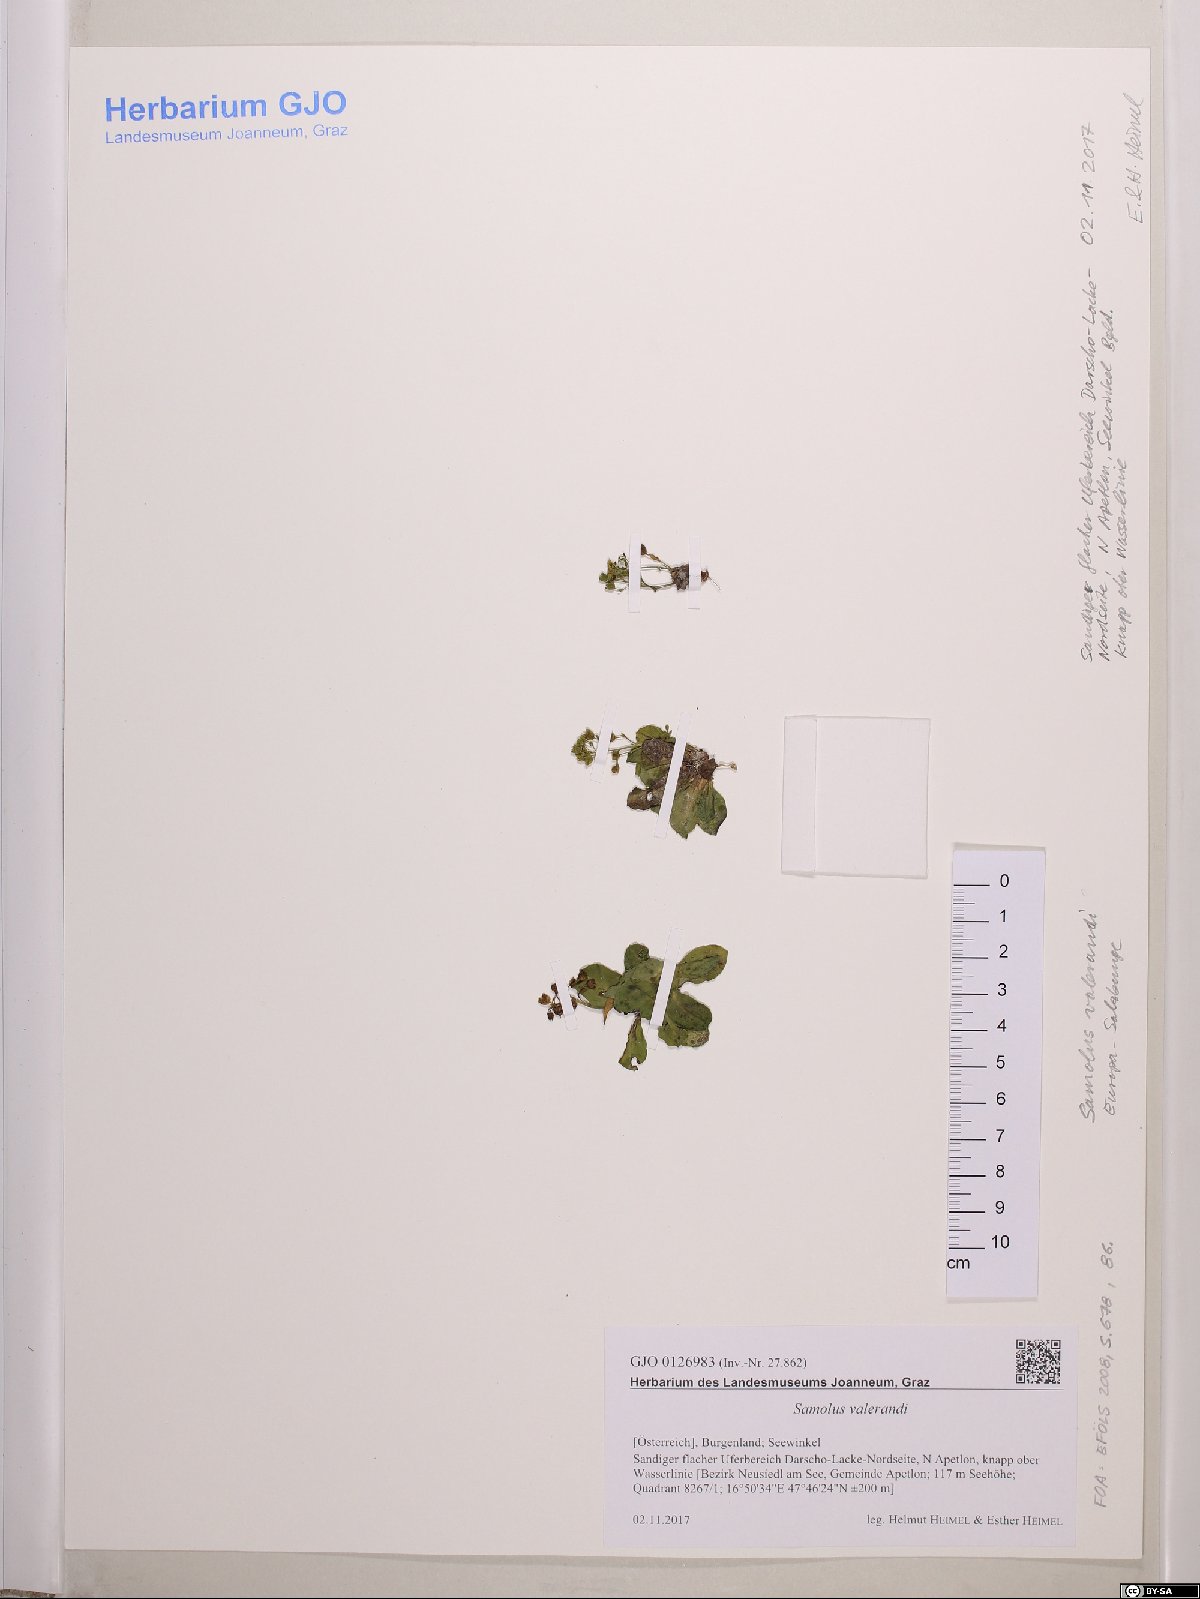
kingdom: Plantae
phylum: Tracheophyta
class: Magnoliopsida
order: Ericales
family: Primulaceae
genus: Samolus
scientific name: Samolus valerandi
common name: Brookweed
